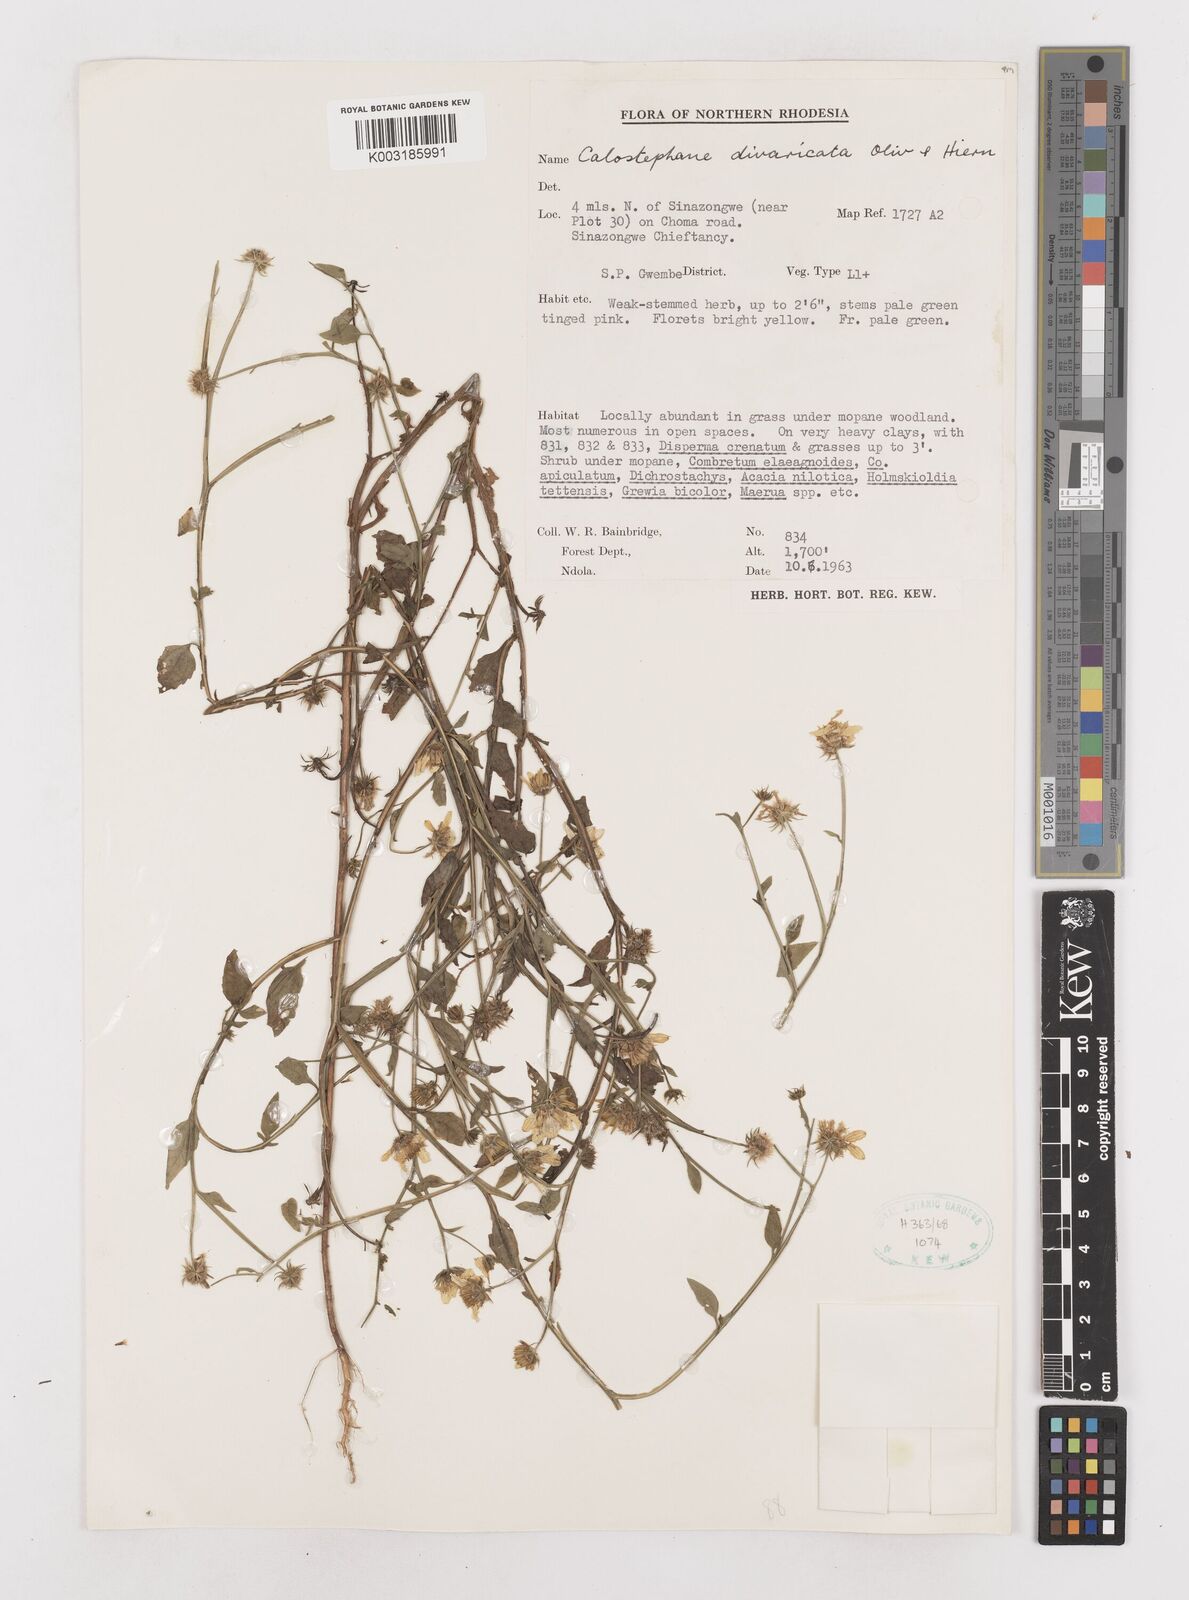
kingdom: Plantae
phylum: Tracheophyta
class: Magnoliopsida
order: Asterales
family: Asteraceae
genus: Calostephane
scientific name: Calostephane divaricata
